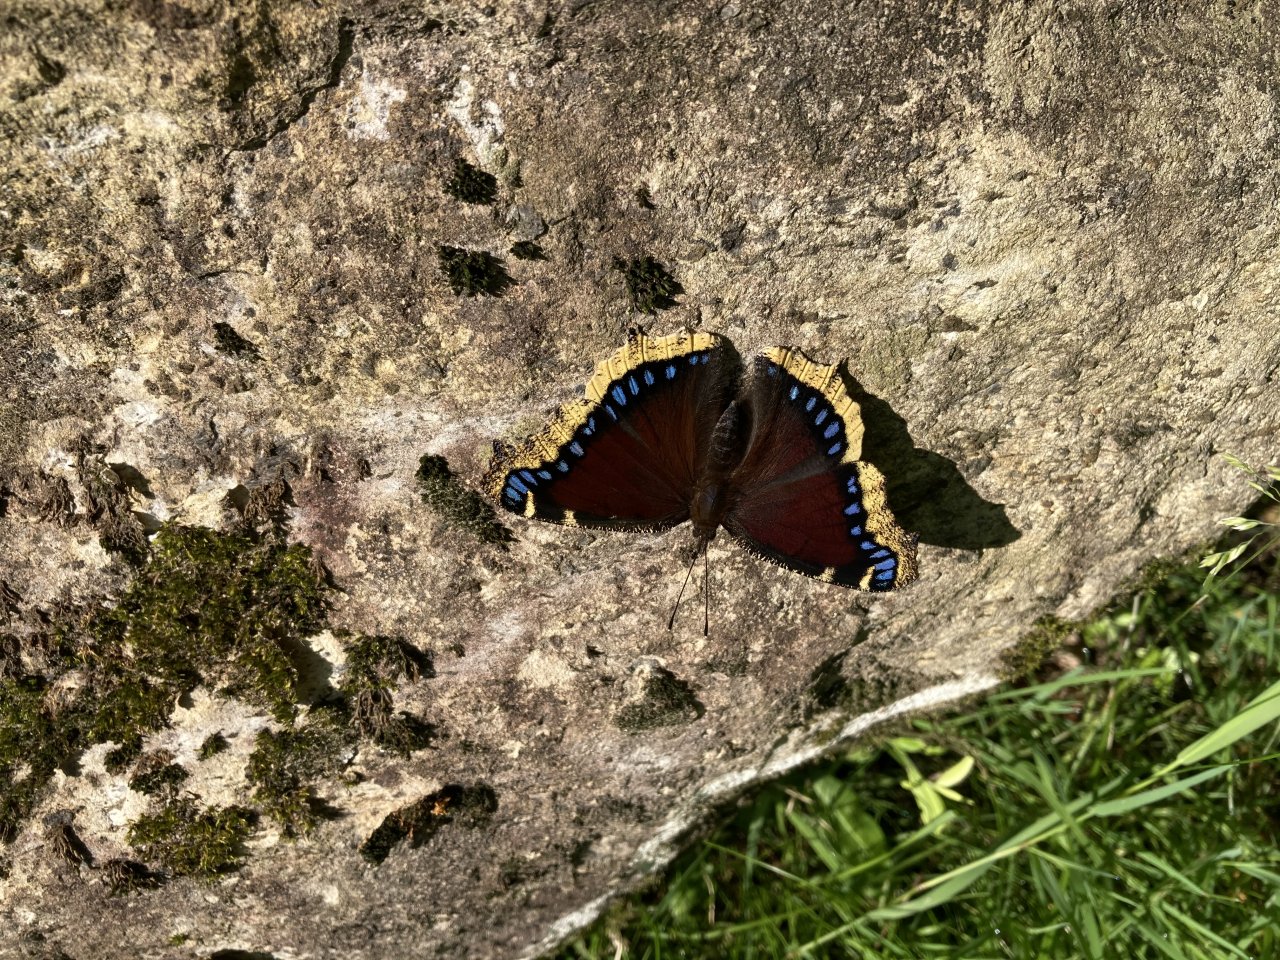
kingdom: Animalia
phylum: Arthropoda
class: Insecta
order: Lepidoptera
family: Nymphalidae
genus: Nymphalis
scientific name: Nymphalis antiopa
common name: Mourning Cloak
